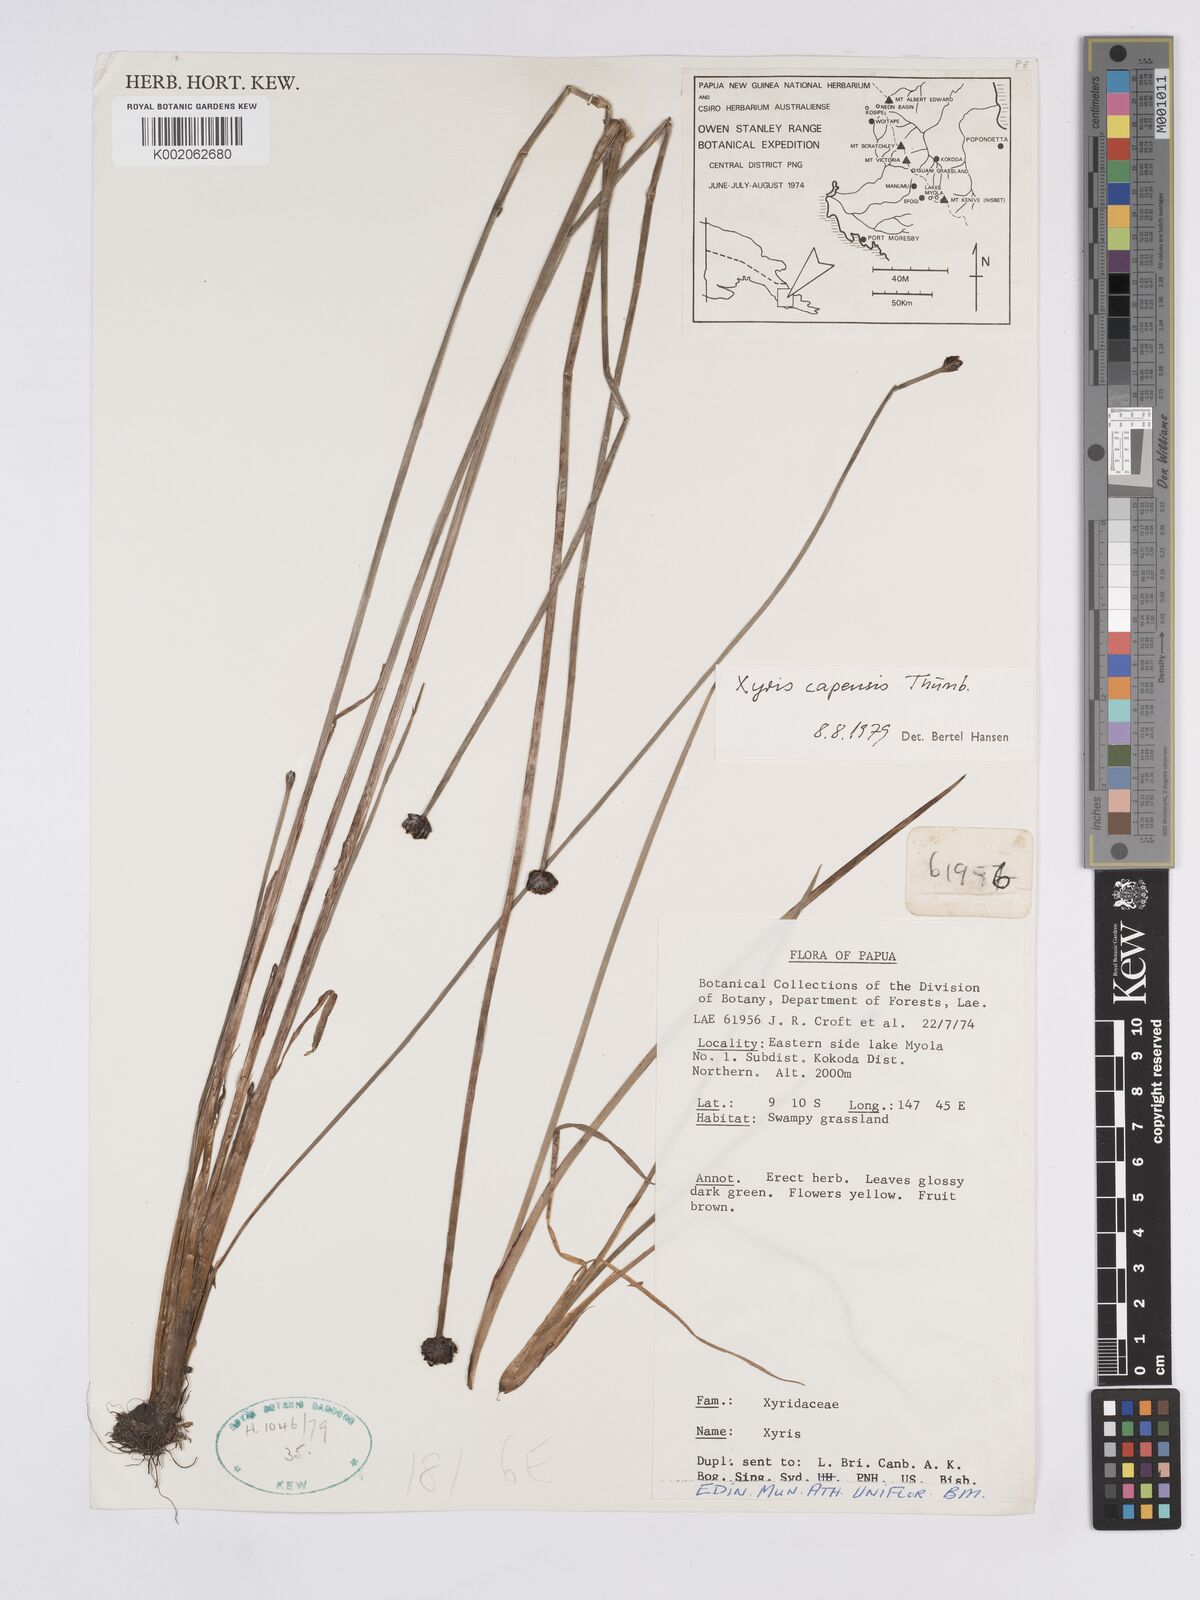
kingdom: Plantae
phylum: Tracheophyta
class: Liliopsida
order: Poales
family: Xyridaceae
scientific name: Xyridaceae
